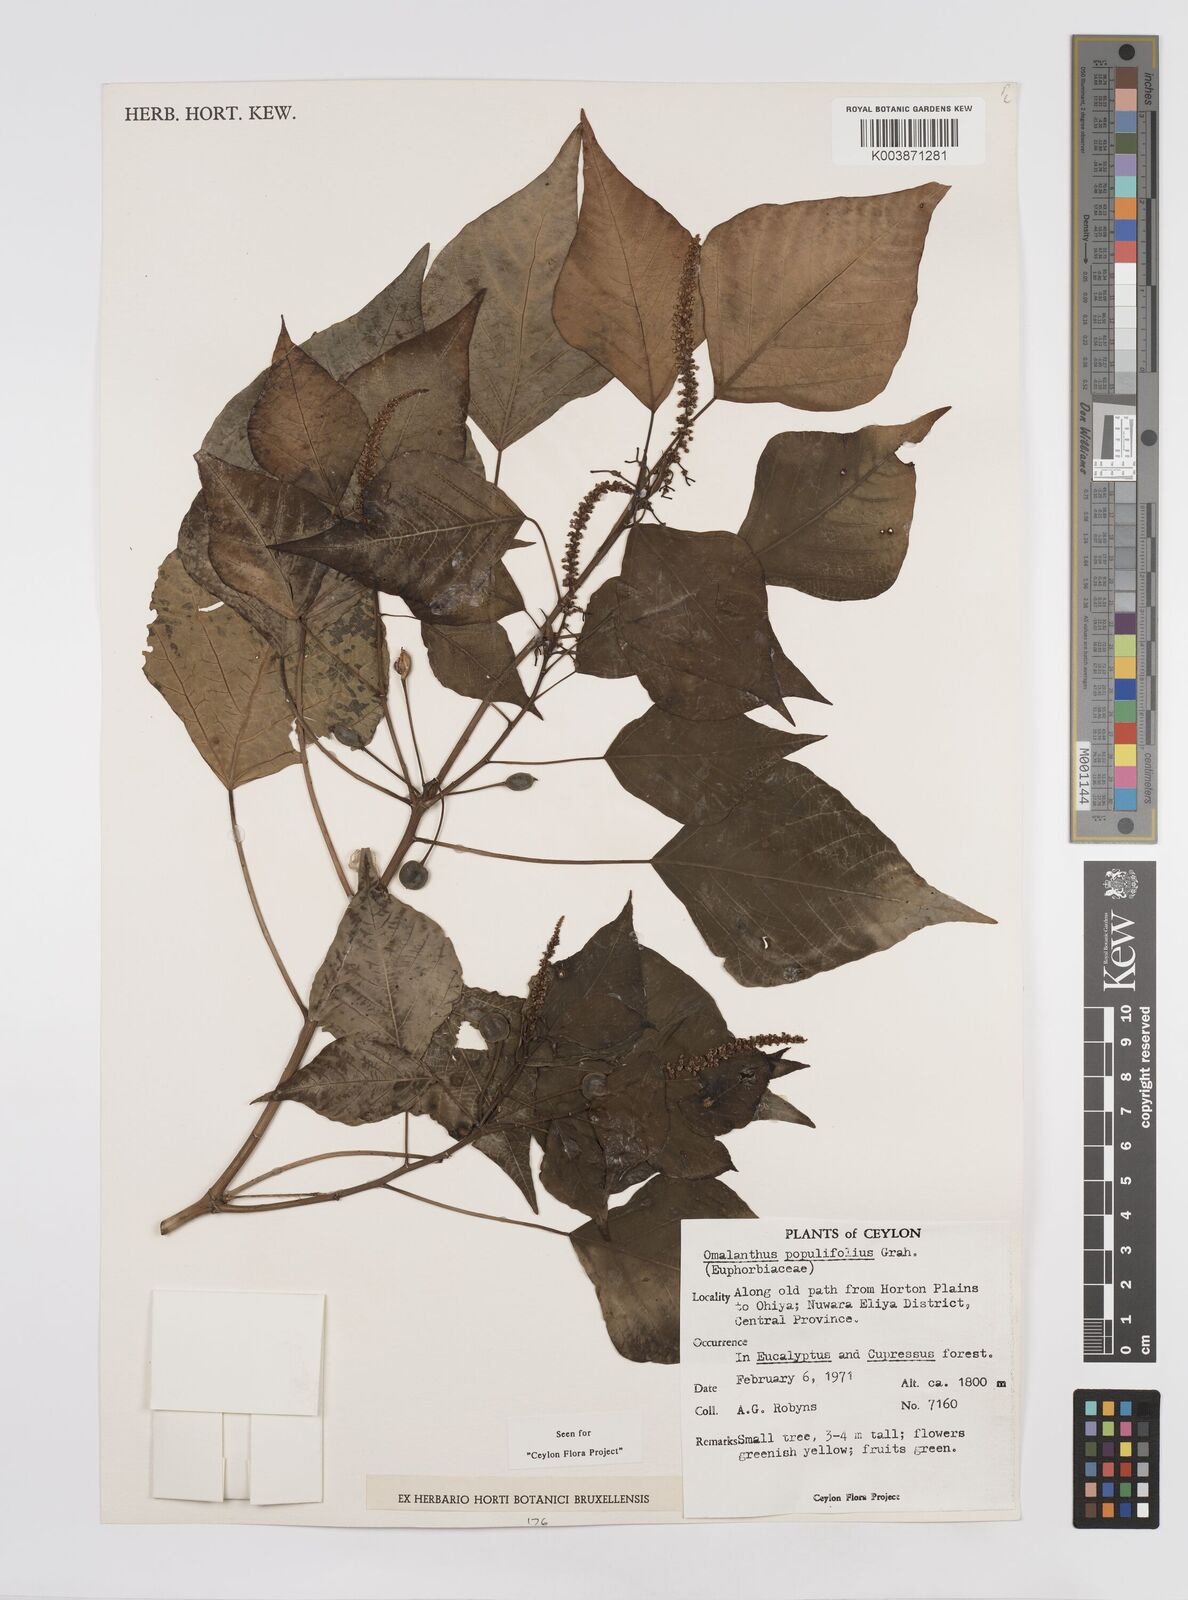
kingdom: Plantae
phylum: Tracheophyta
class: Magnoliopsida
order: Malpighiales
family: Euphorbiaceae
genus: Homalanthus
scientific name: Homalanthus populneus
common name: Spurge
